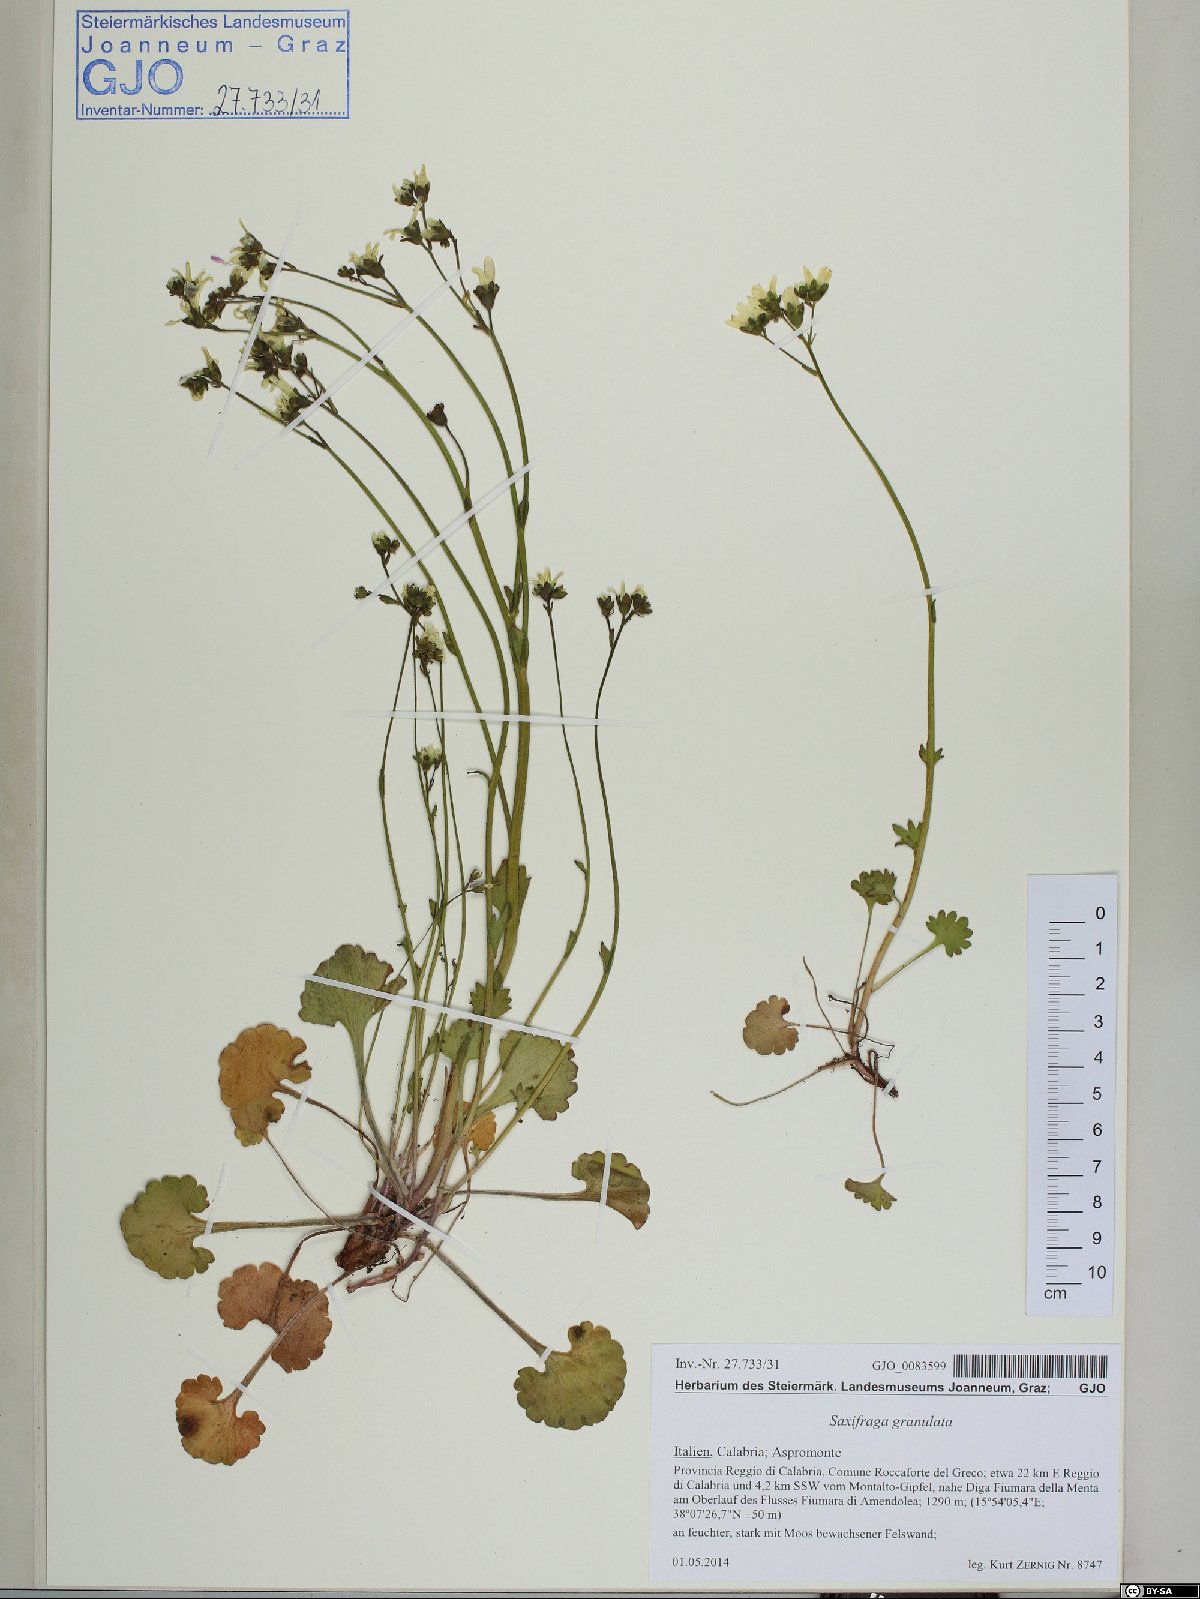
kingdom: Plantae
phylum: Tracheophyta
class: Magnoliopsida
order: Saxifragales
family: Saxifragaceae
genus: Saxifraga
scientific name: Saxifraga granulata
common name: Meadow saxifrage
